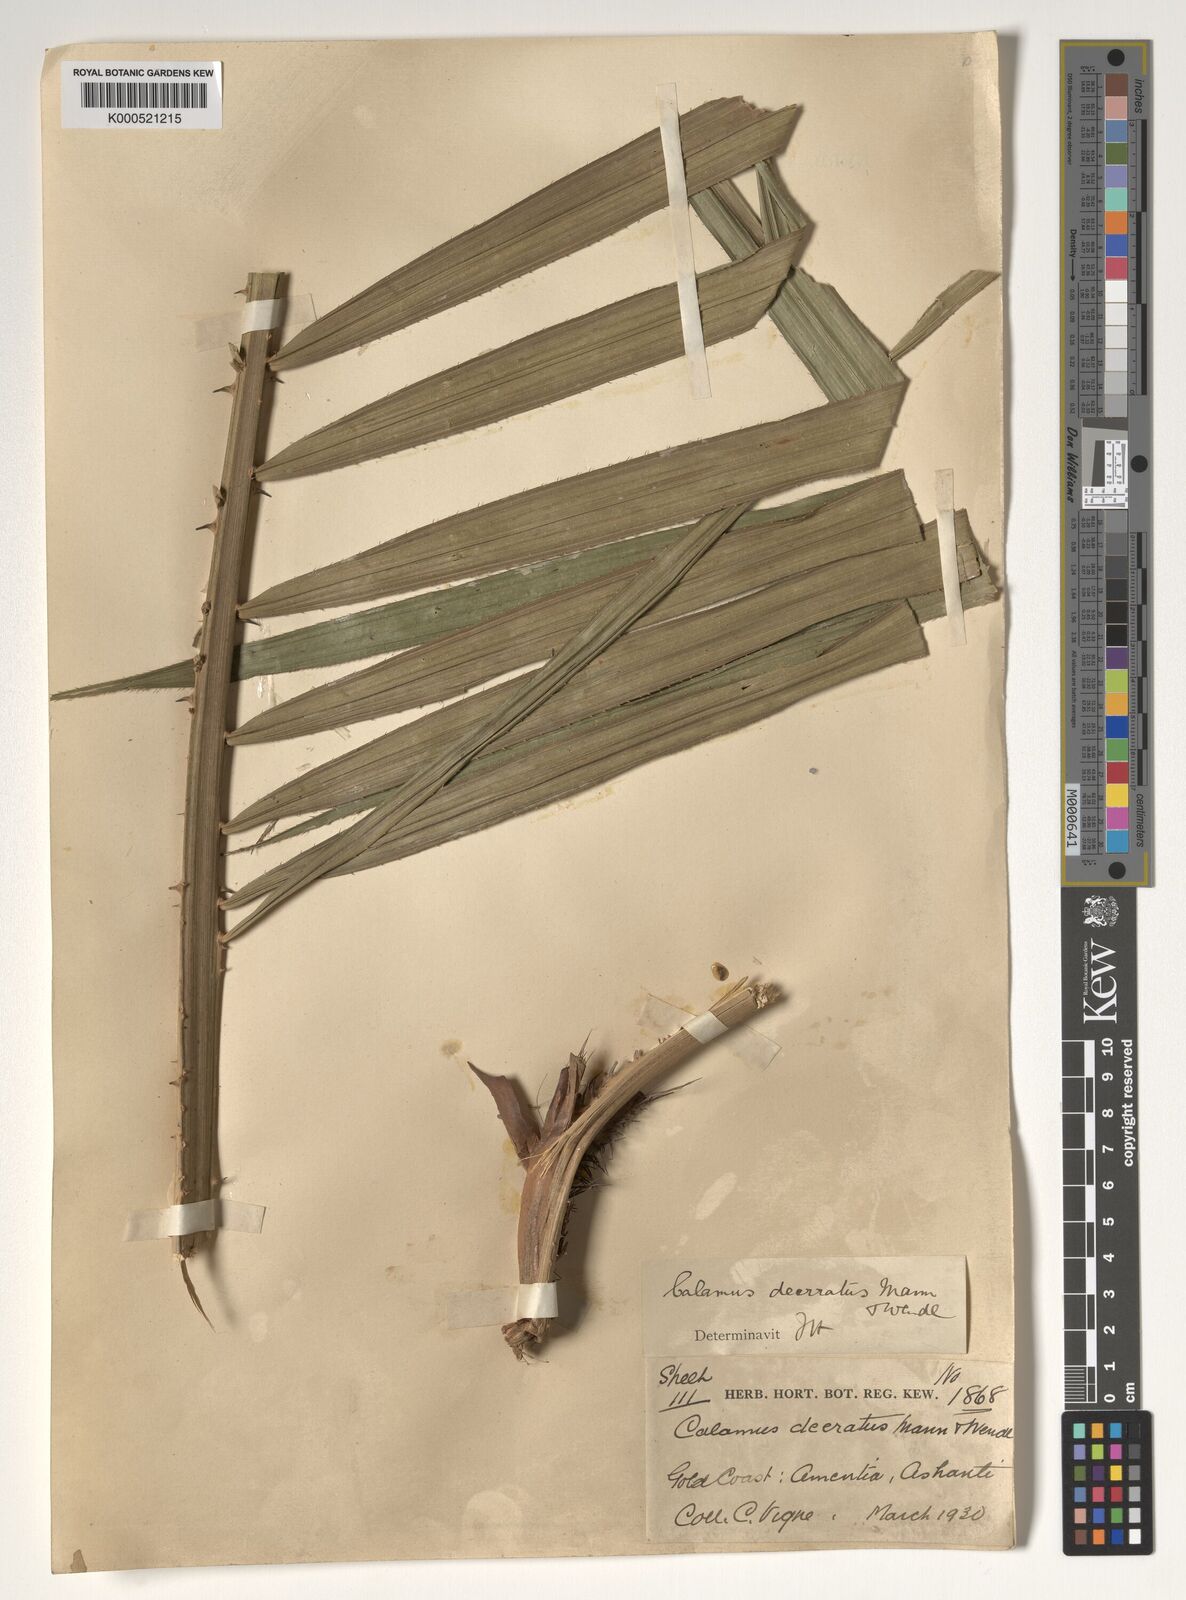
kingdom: Plantae
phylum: Tracheophyta
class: Liliopsida
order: Arecales
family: Arecaceae
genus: Calamus
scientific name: Calamus deerratus
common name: Rattan
